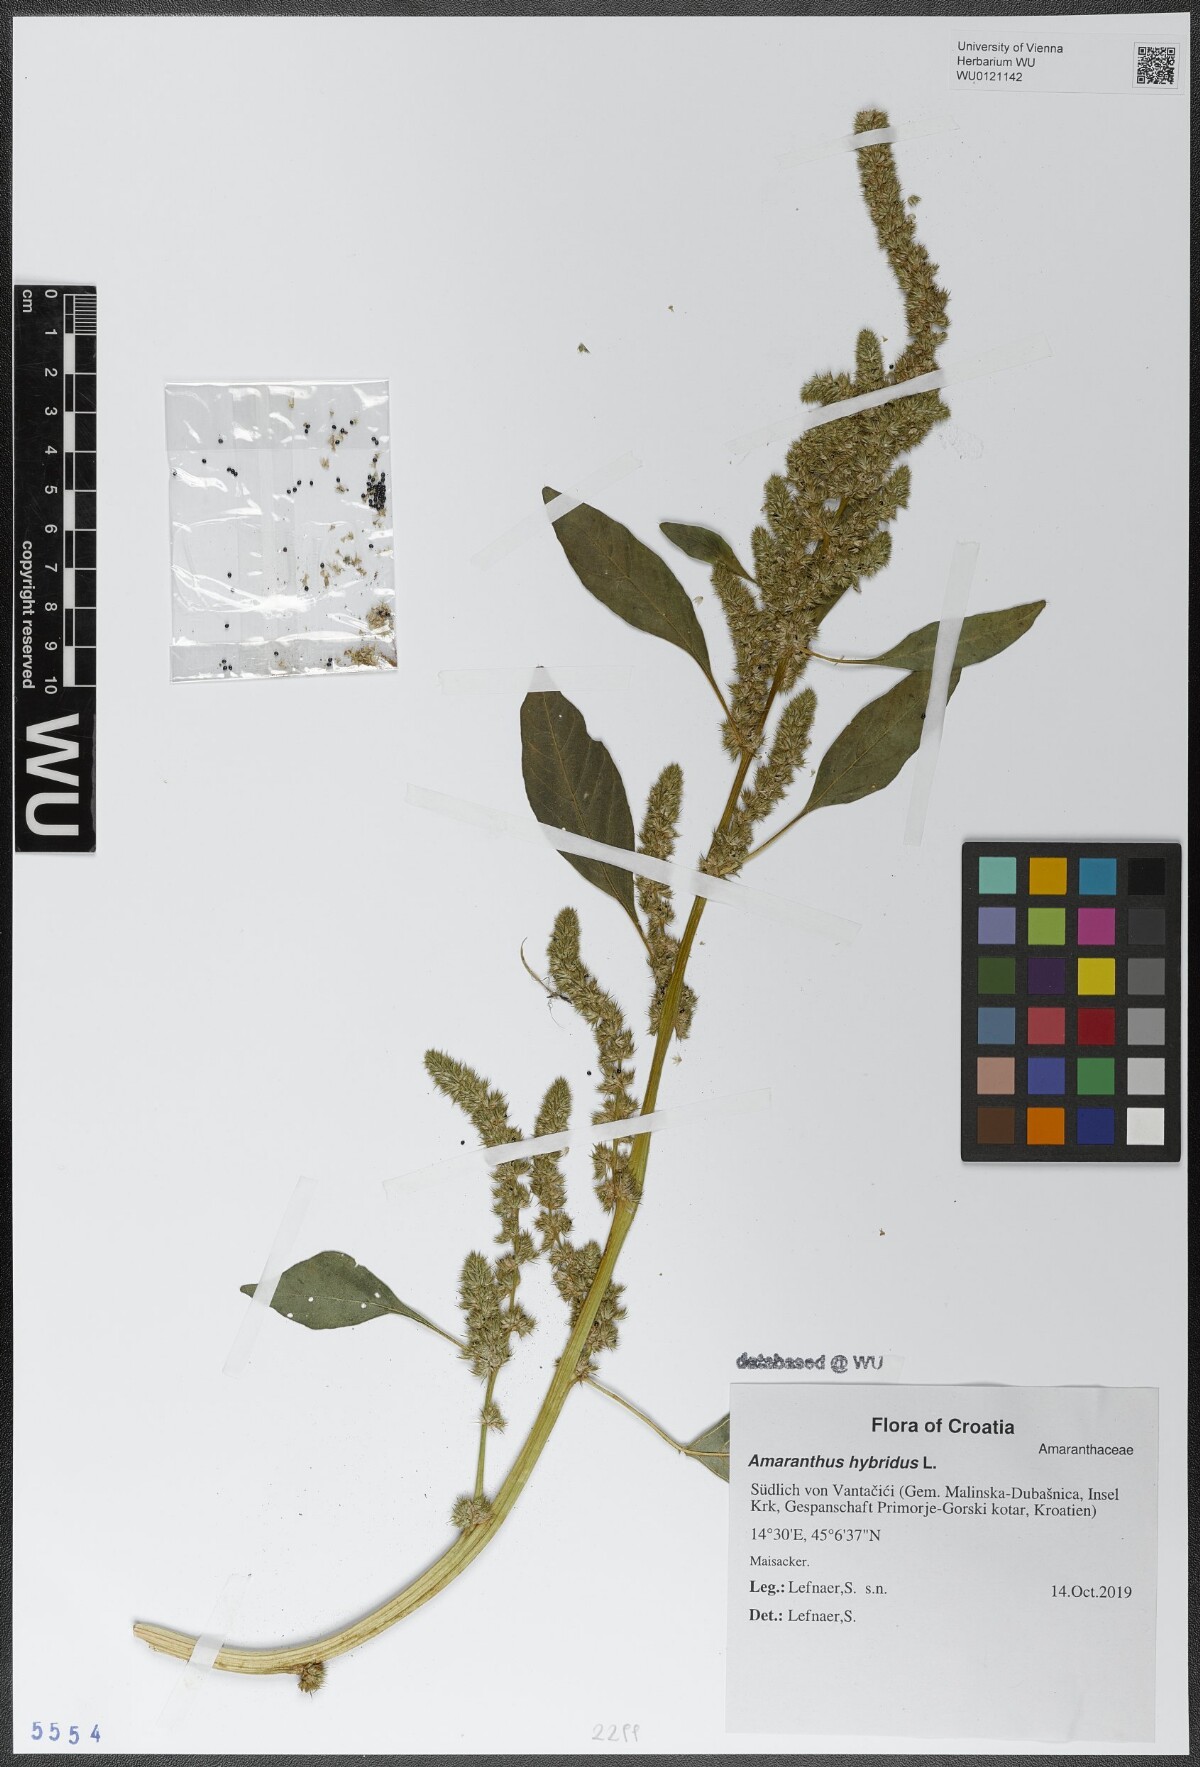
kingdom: Plantae
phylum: Tracheophyta
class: Magnoliopsida
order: Caryophyllales
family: Amaranthaceae
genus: Amaranthus
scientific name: Amaranthus hybridus
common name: Green amaranth
